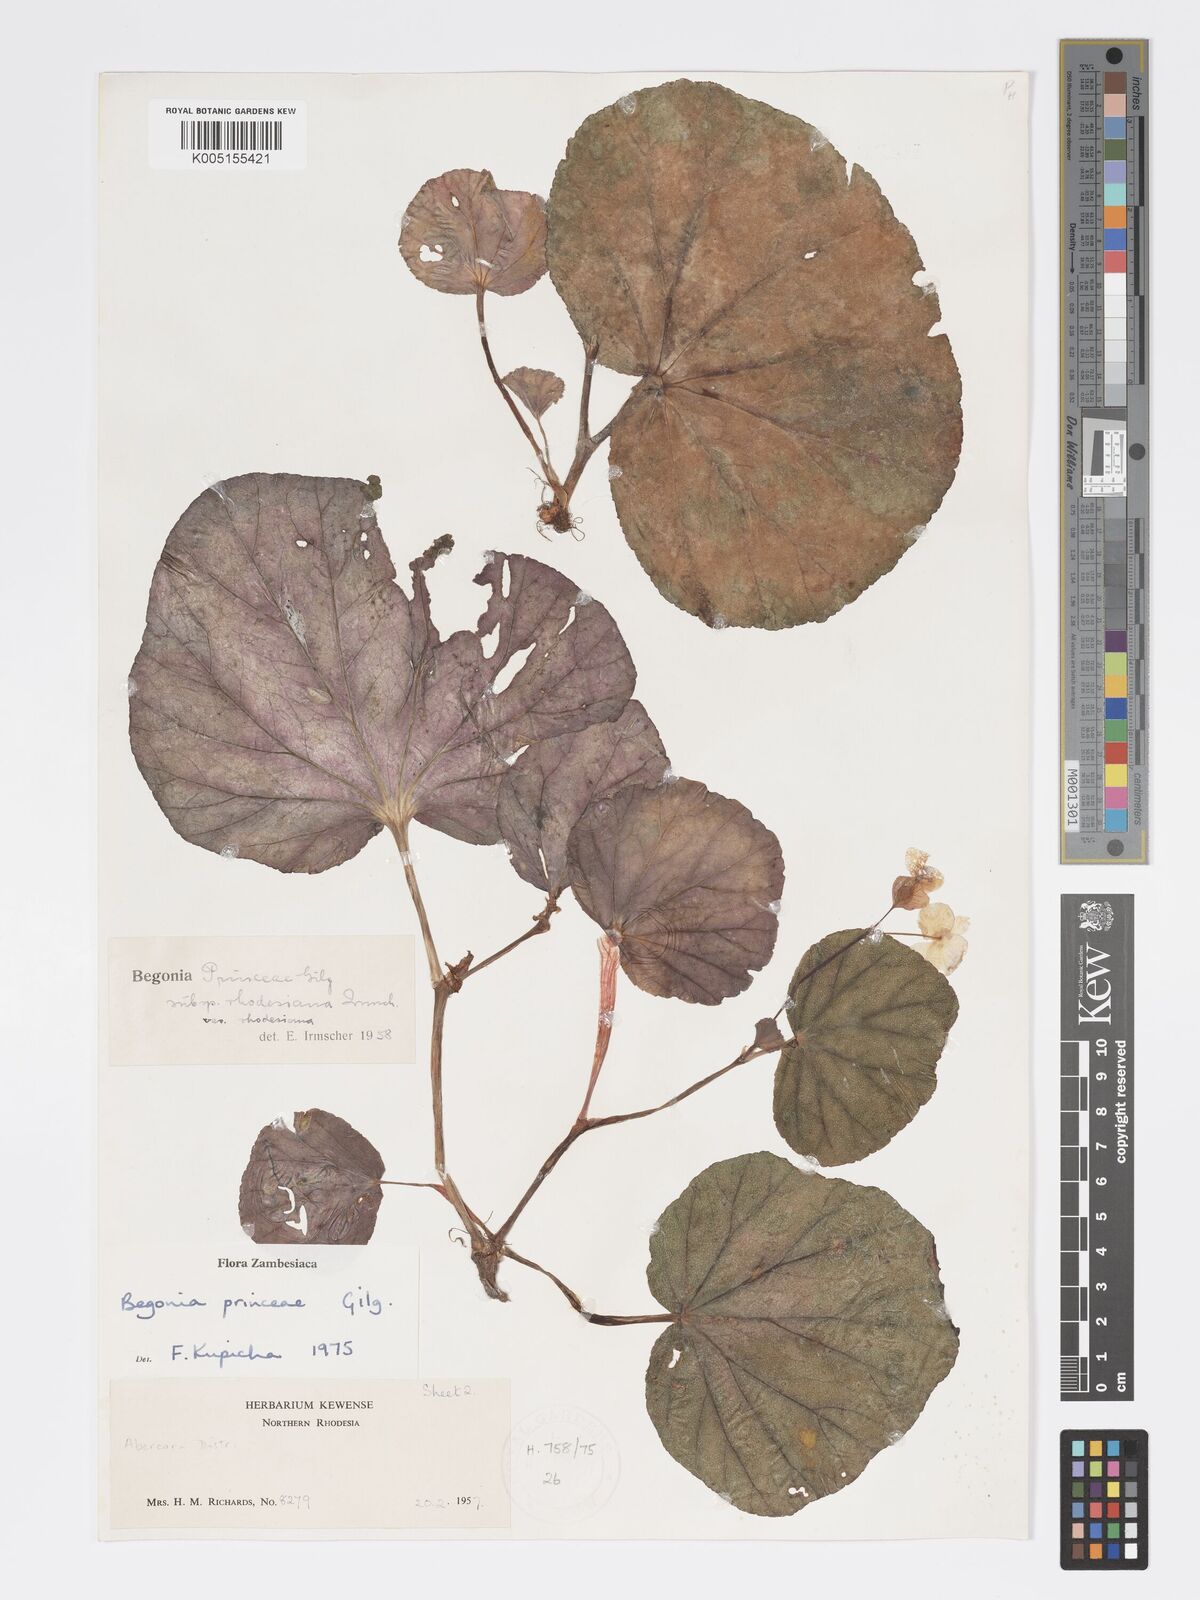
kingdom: Plantae
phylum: Tracheophyta
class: Magnoliopsida
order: Cucurbitales
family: Begoniaceae
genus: Begonia
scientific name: Begonia princeae
